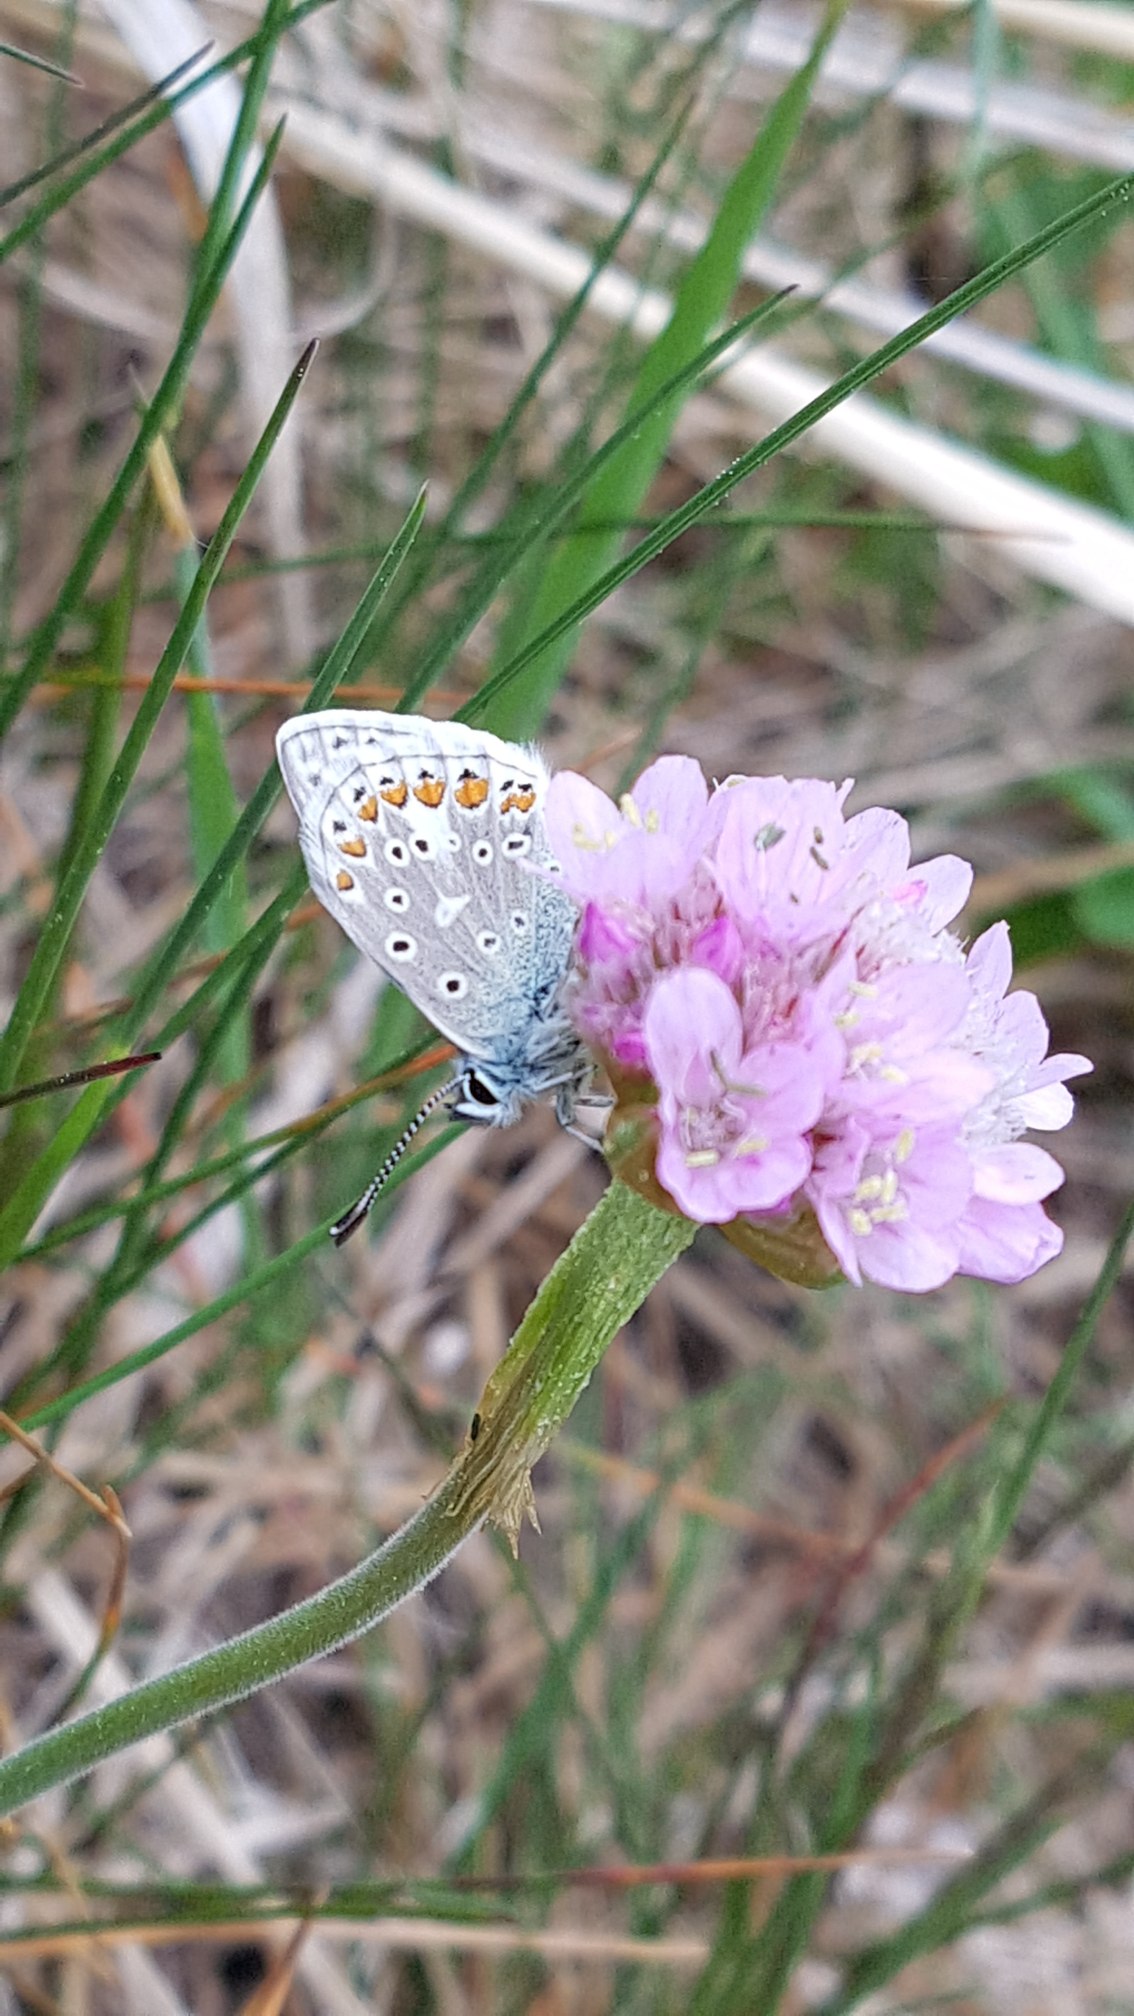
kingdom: Animalia
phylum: Arthropoda
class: Insecta
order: Lepidoptera
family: Lycaenidae
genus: Polyommatus
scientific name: Polyommatus icarus
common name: Almindelig blåfugl
